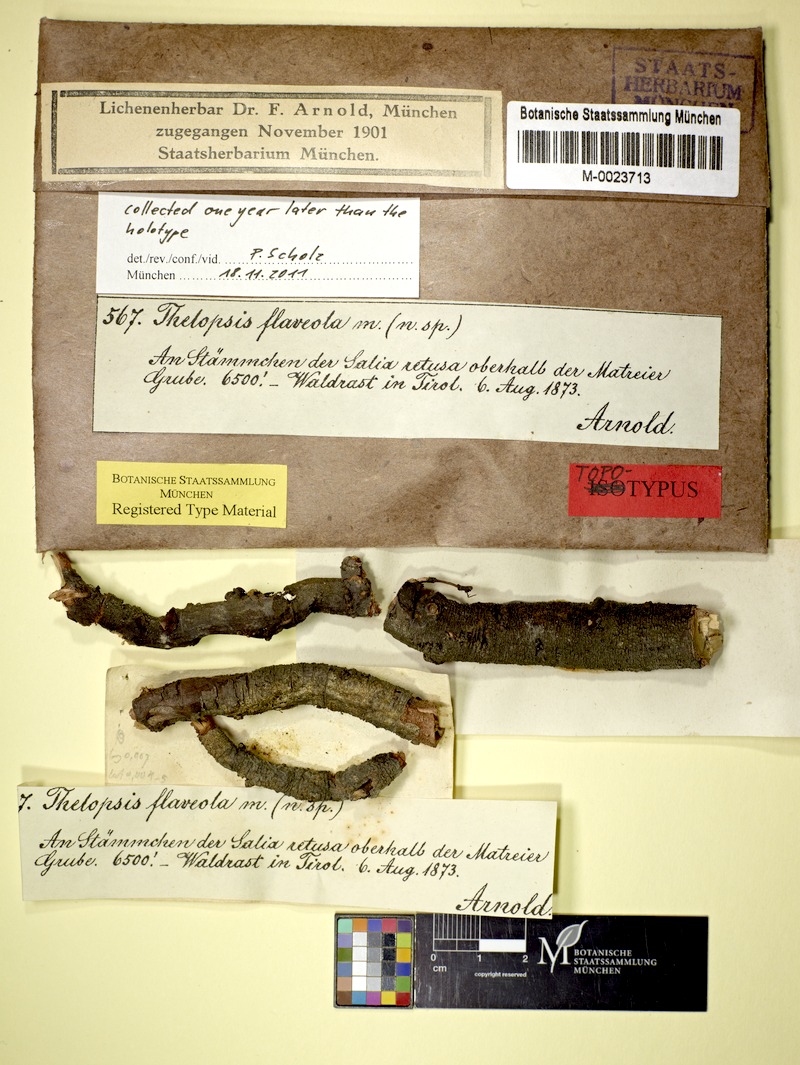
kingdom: Fungi
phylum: Ascomycota
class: Lecanoromycetes
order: Ostropales
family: Stictidaceae
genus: Thelopsis
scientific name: Thelopsis flaveola
